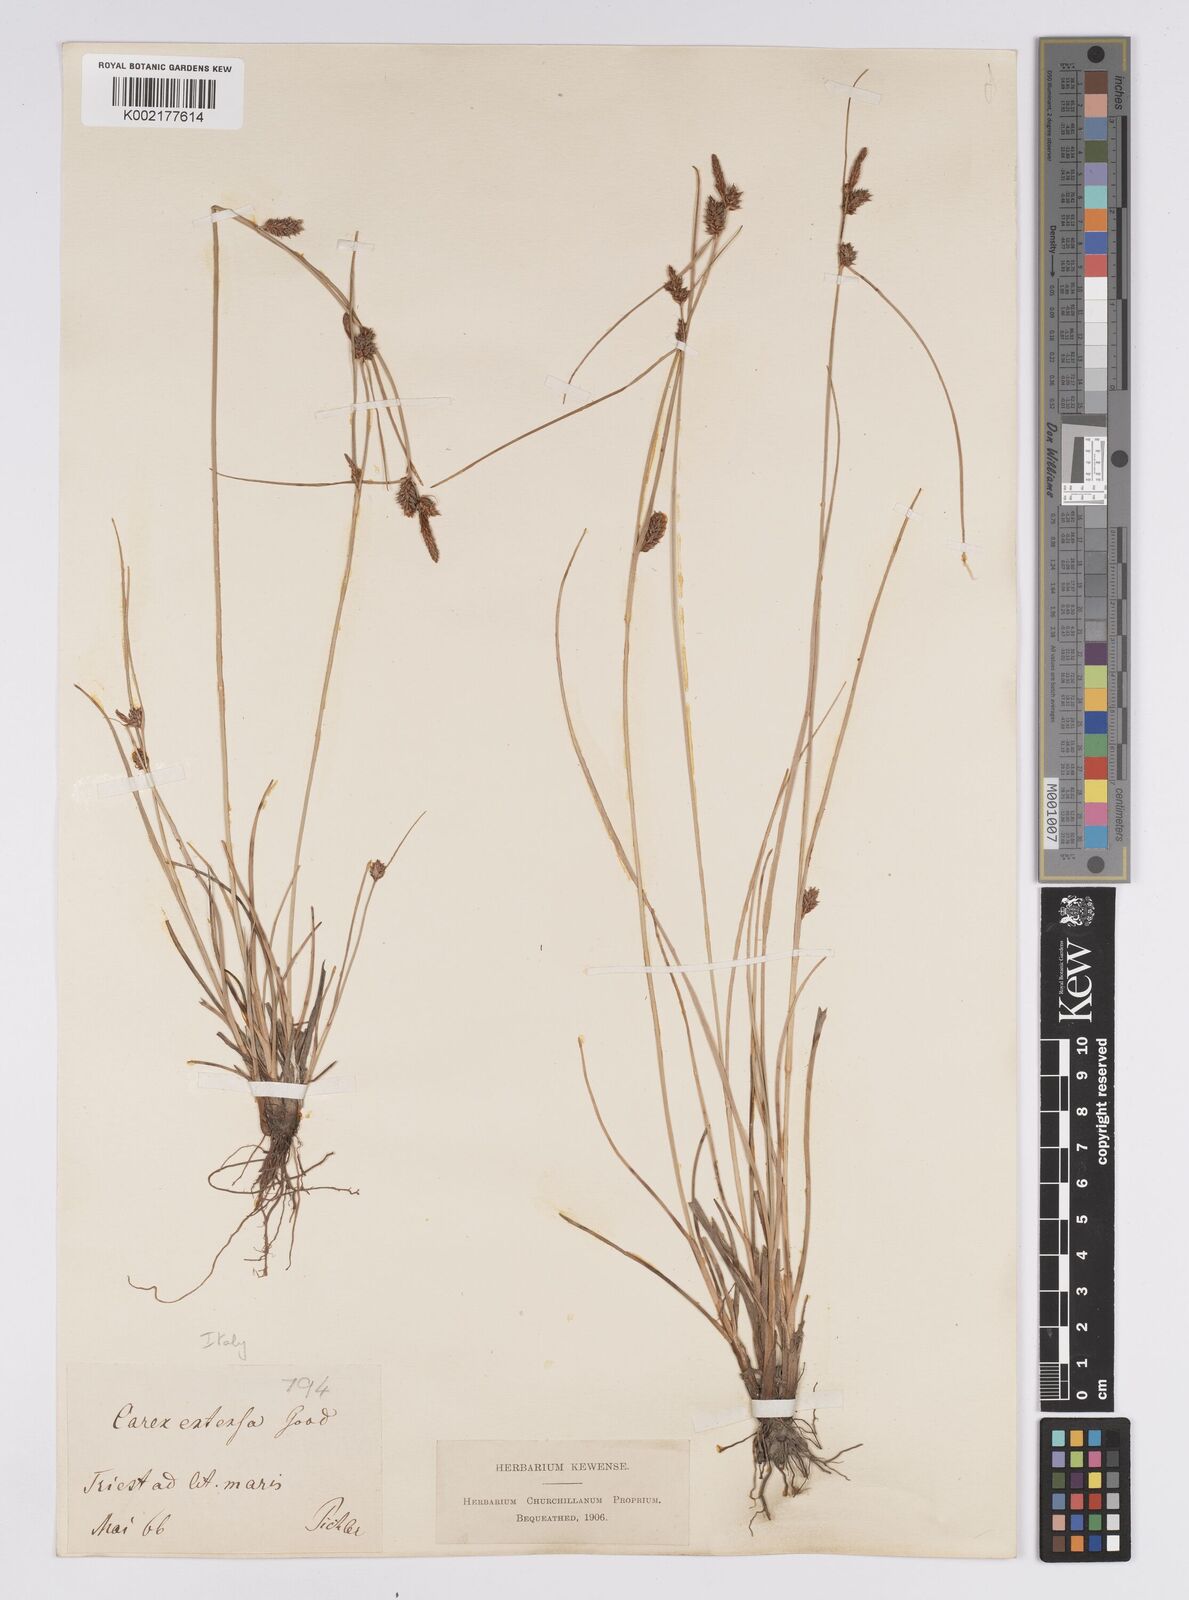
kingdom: Plantae
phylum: Tracheophyta
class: Liliopsida
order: Poales
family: Cyperaceae
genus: Carex
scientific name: Carex extensa
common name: Long-bracted sedge
